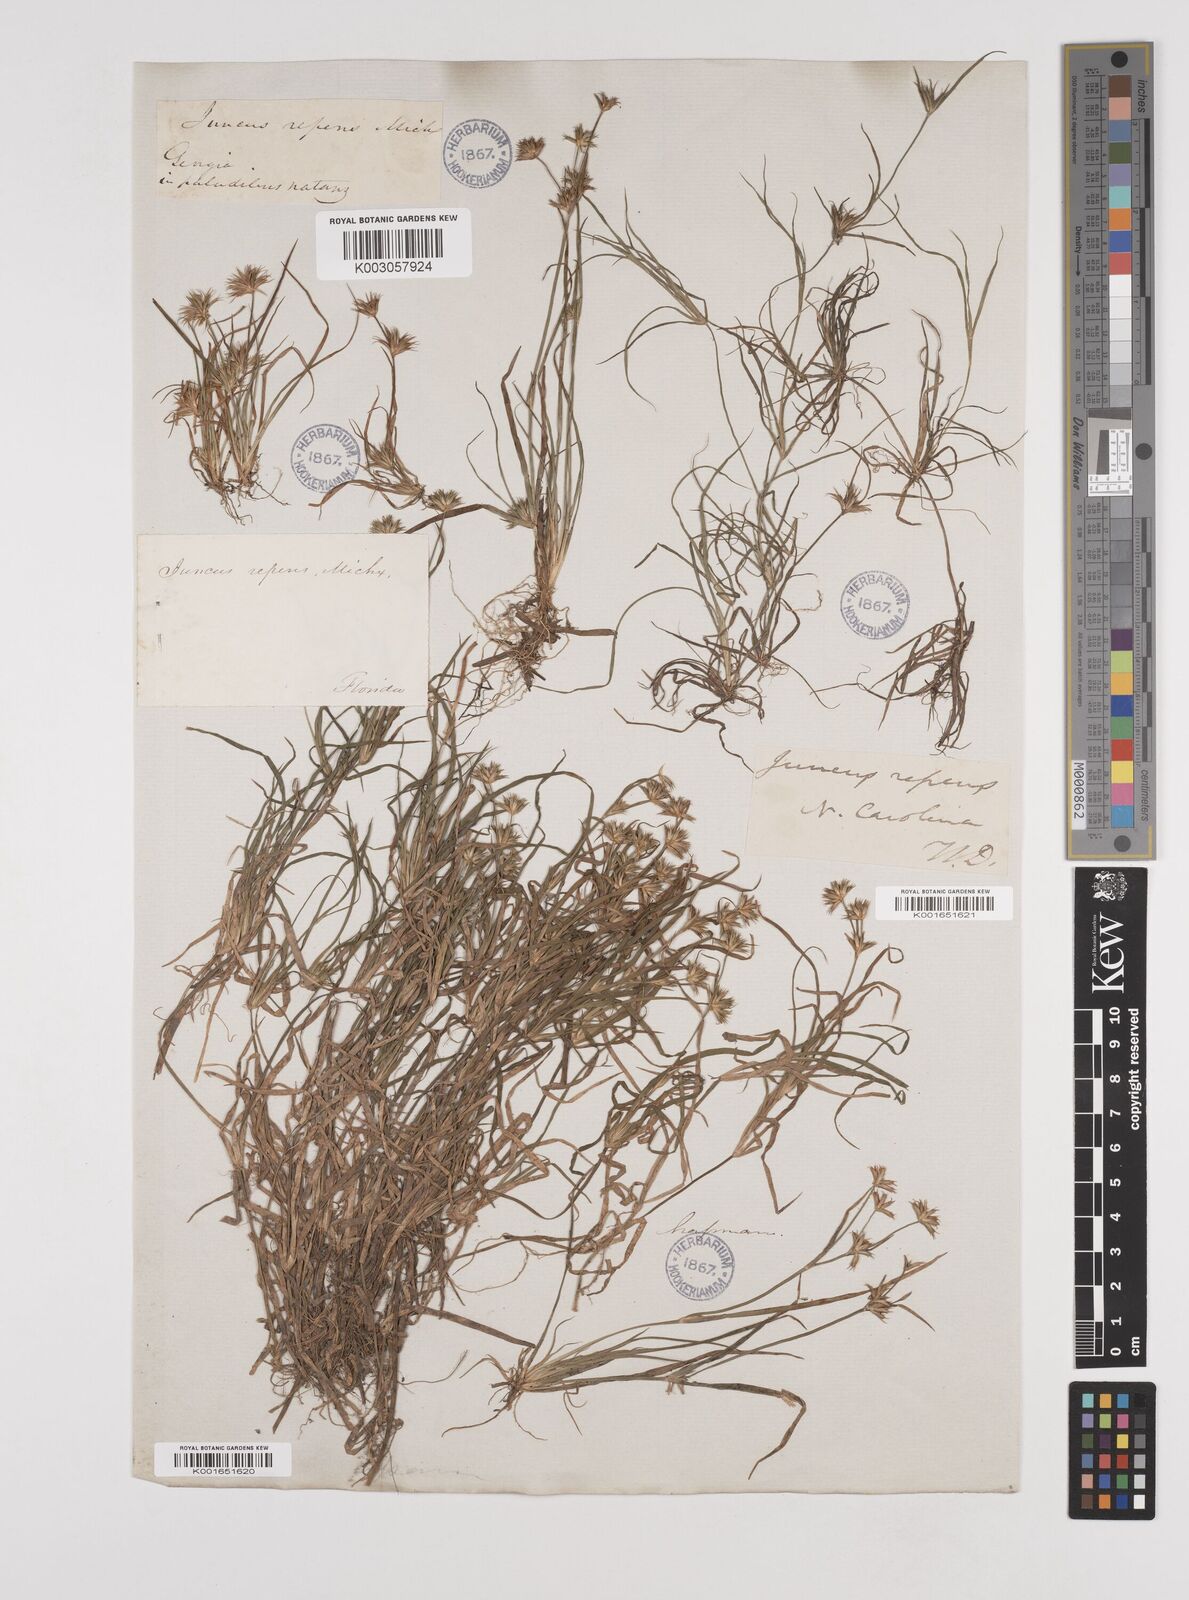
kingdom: Plantae
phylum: Tracheophyta
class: Liliopsida
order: Poales
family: Juncaceae
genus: Juncus
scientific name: Juncus repens
